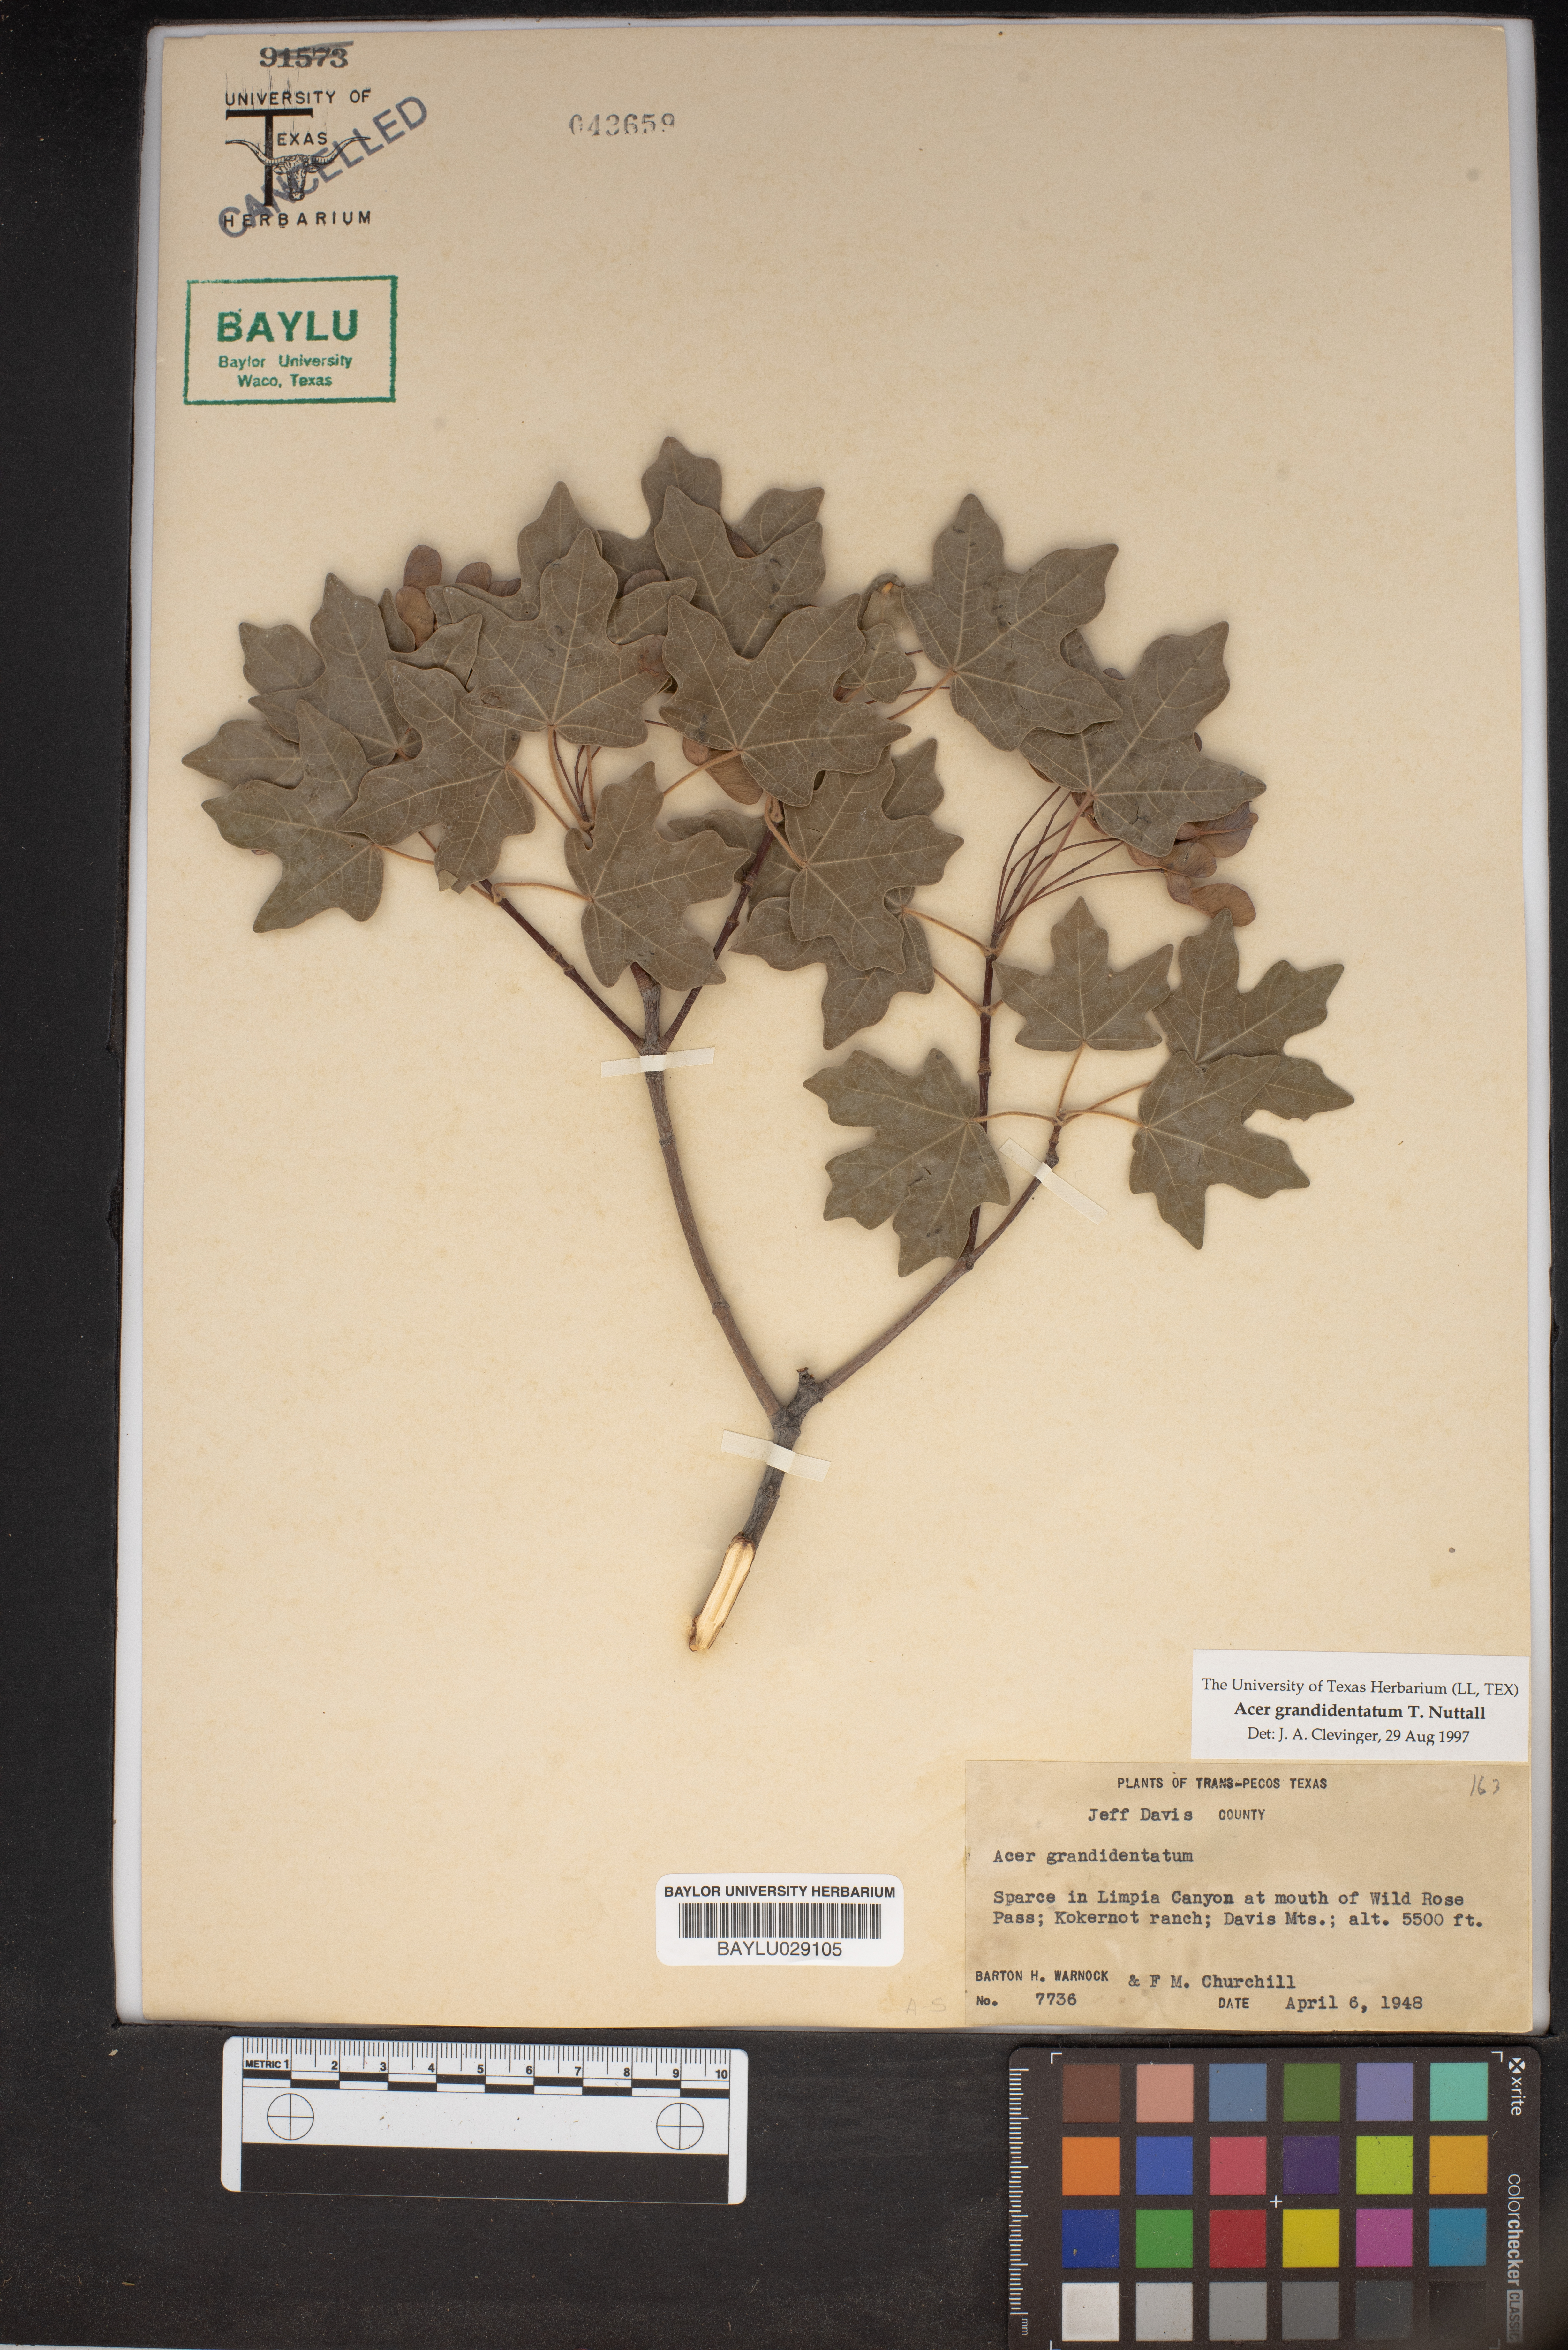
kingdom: Plantae
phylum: Tracheophyta
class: Magnoliopsida
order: Sapindales
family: Sapindaceae
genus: Acer
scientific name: Acer grandidentatum
